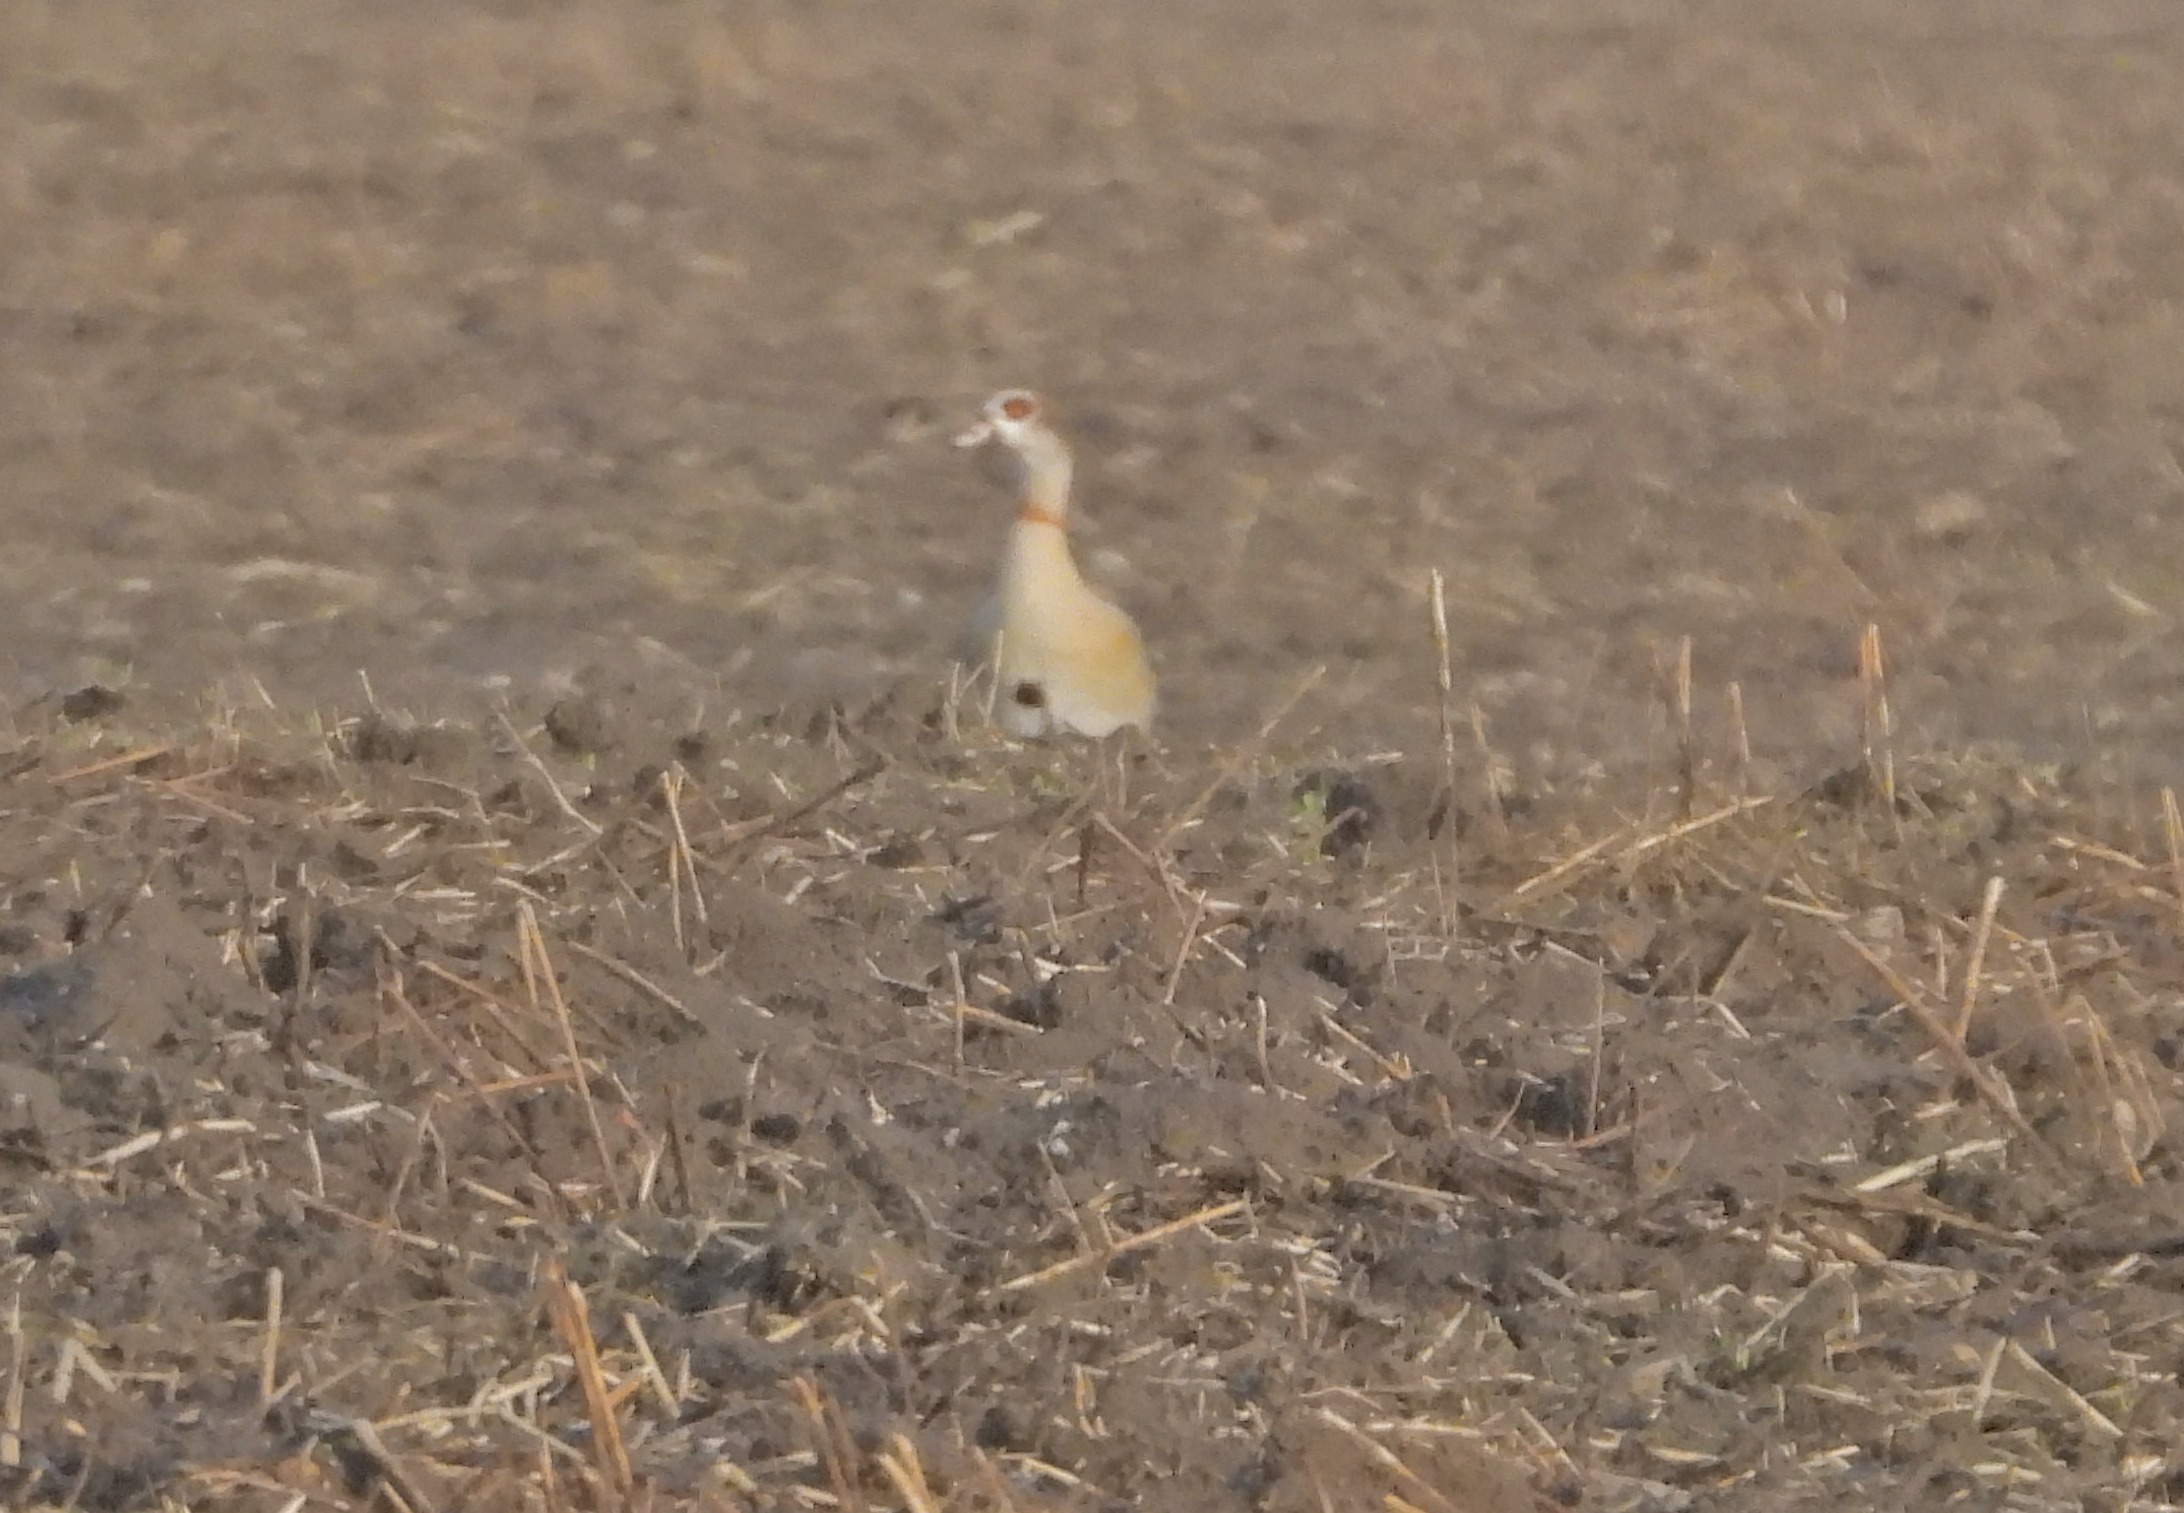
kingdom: Animalia
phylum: Chordata
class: Aves
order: Anseriformes
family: Anatidae
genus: Alopochen
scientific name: Alopochen aegyptiaca
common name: Nilgås
